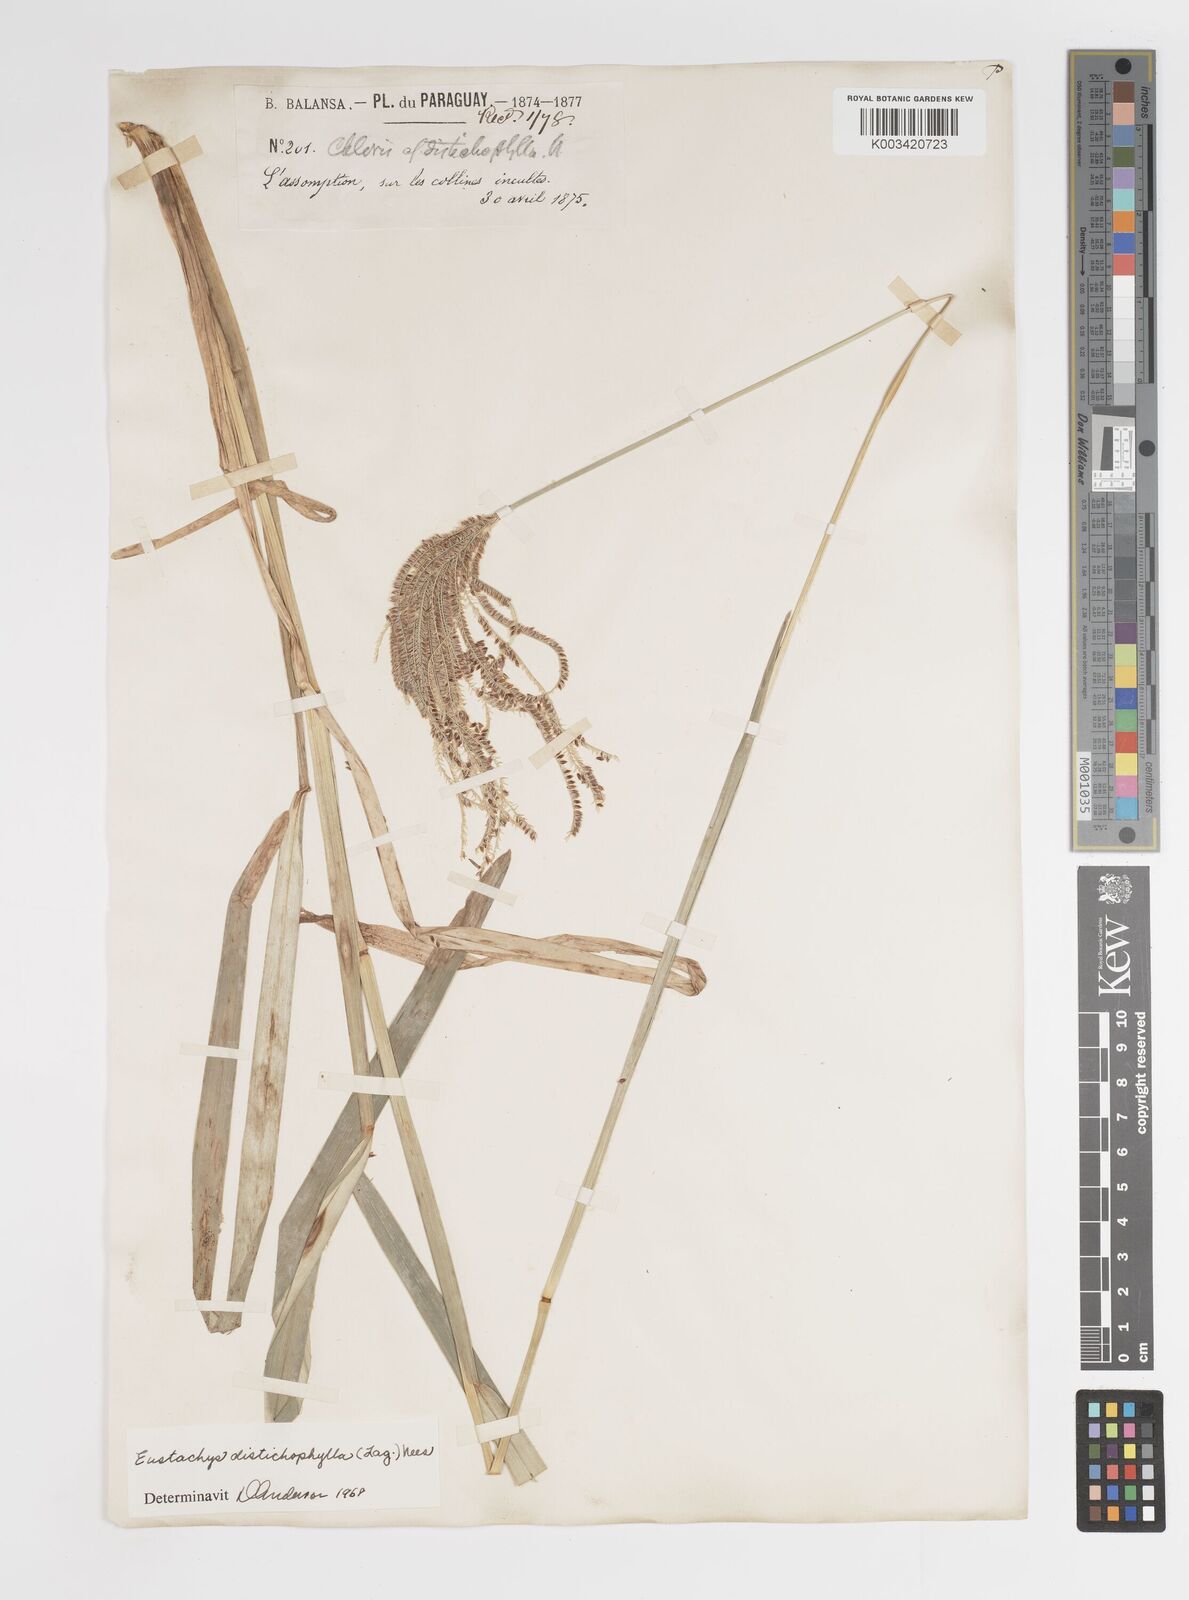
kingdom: Plantae
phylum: Tracheophyta
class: Liliopsida
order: Poales
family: Poaceae
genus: Eustachys
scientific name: Eustachys distichophylla
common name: Weeping fingergrass
